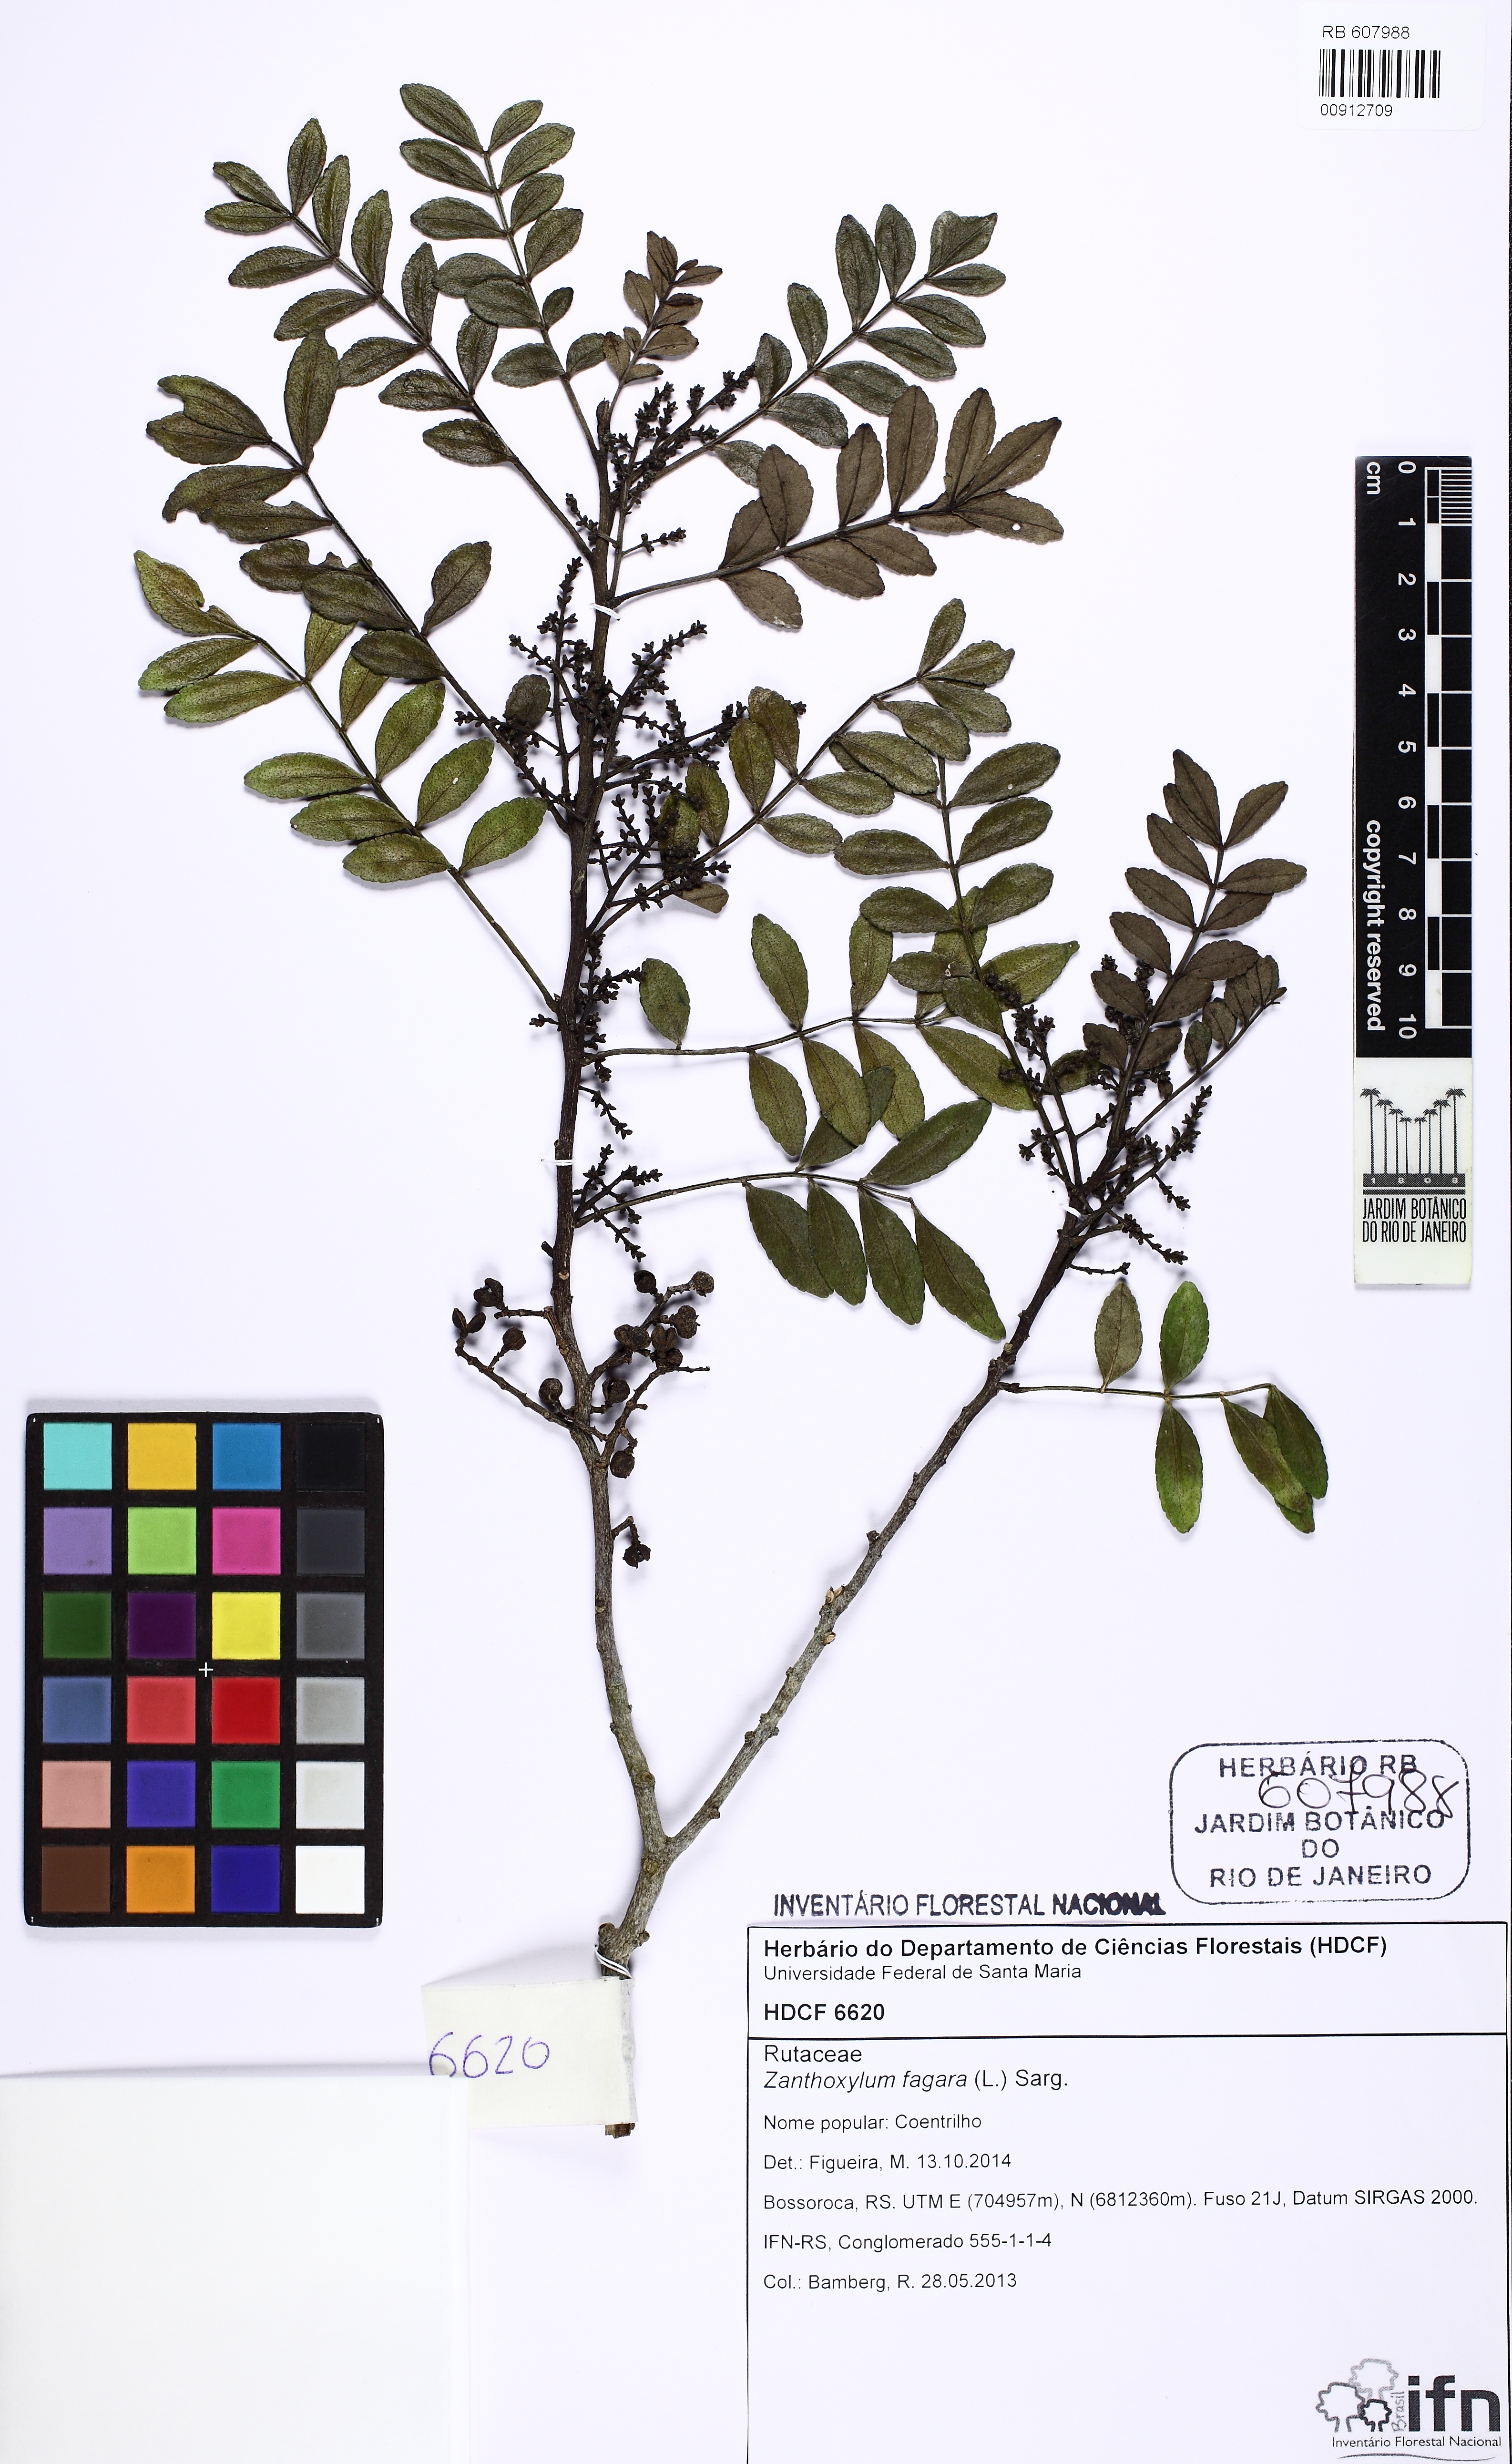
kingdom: Plantae
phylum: Tracheophyta
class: Magnoliopsida
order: Sapindales
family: Rutaceae
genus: Zanthoxylum
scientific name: Zanthoxylum fagara
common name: Lime prickly-ash
